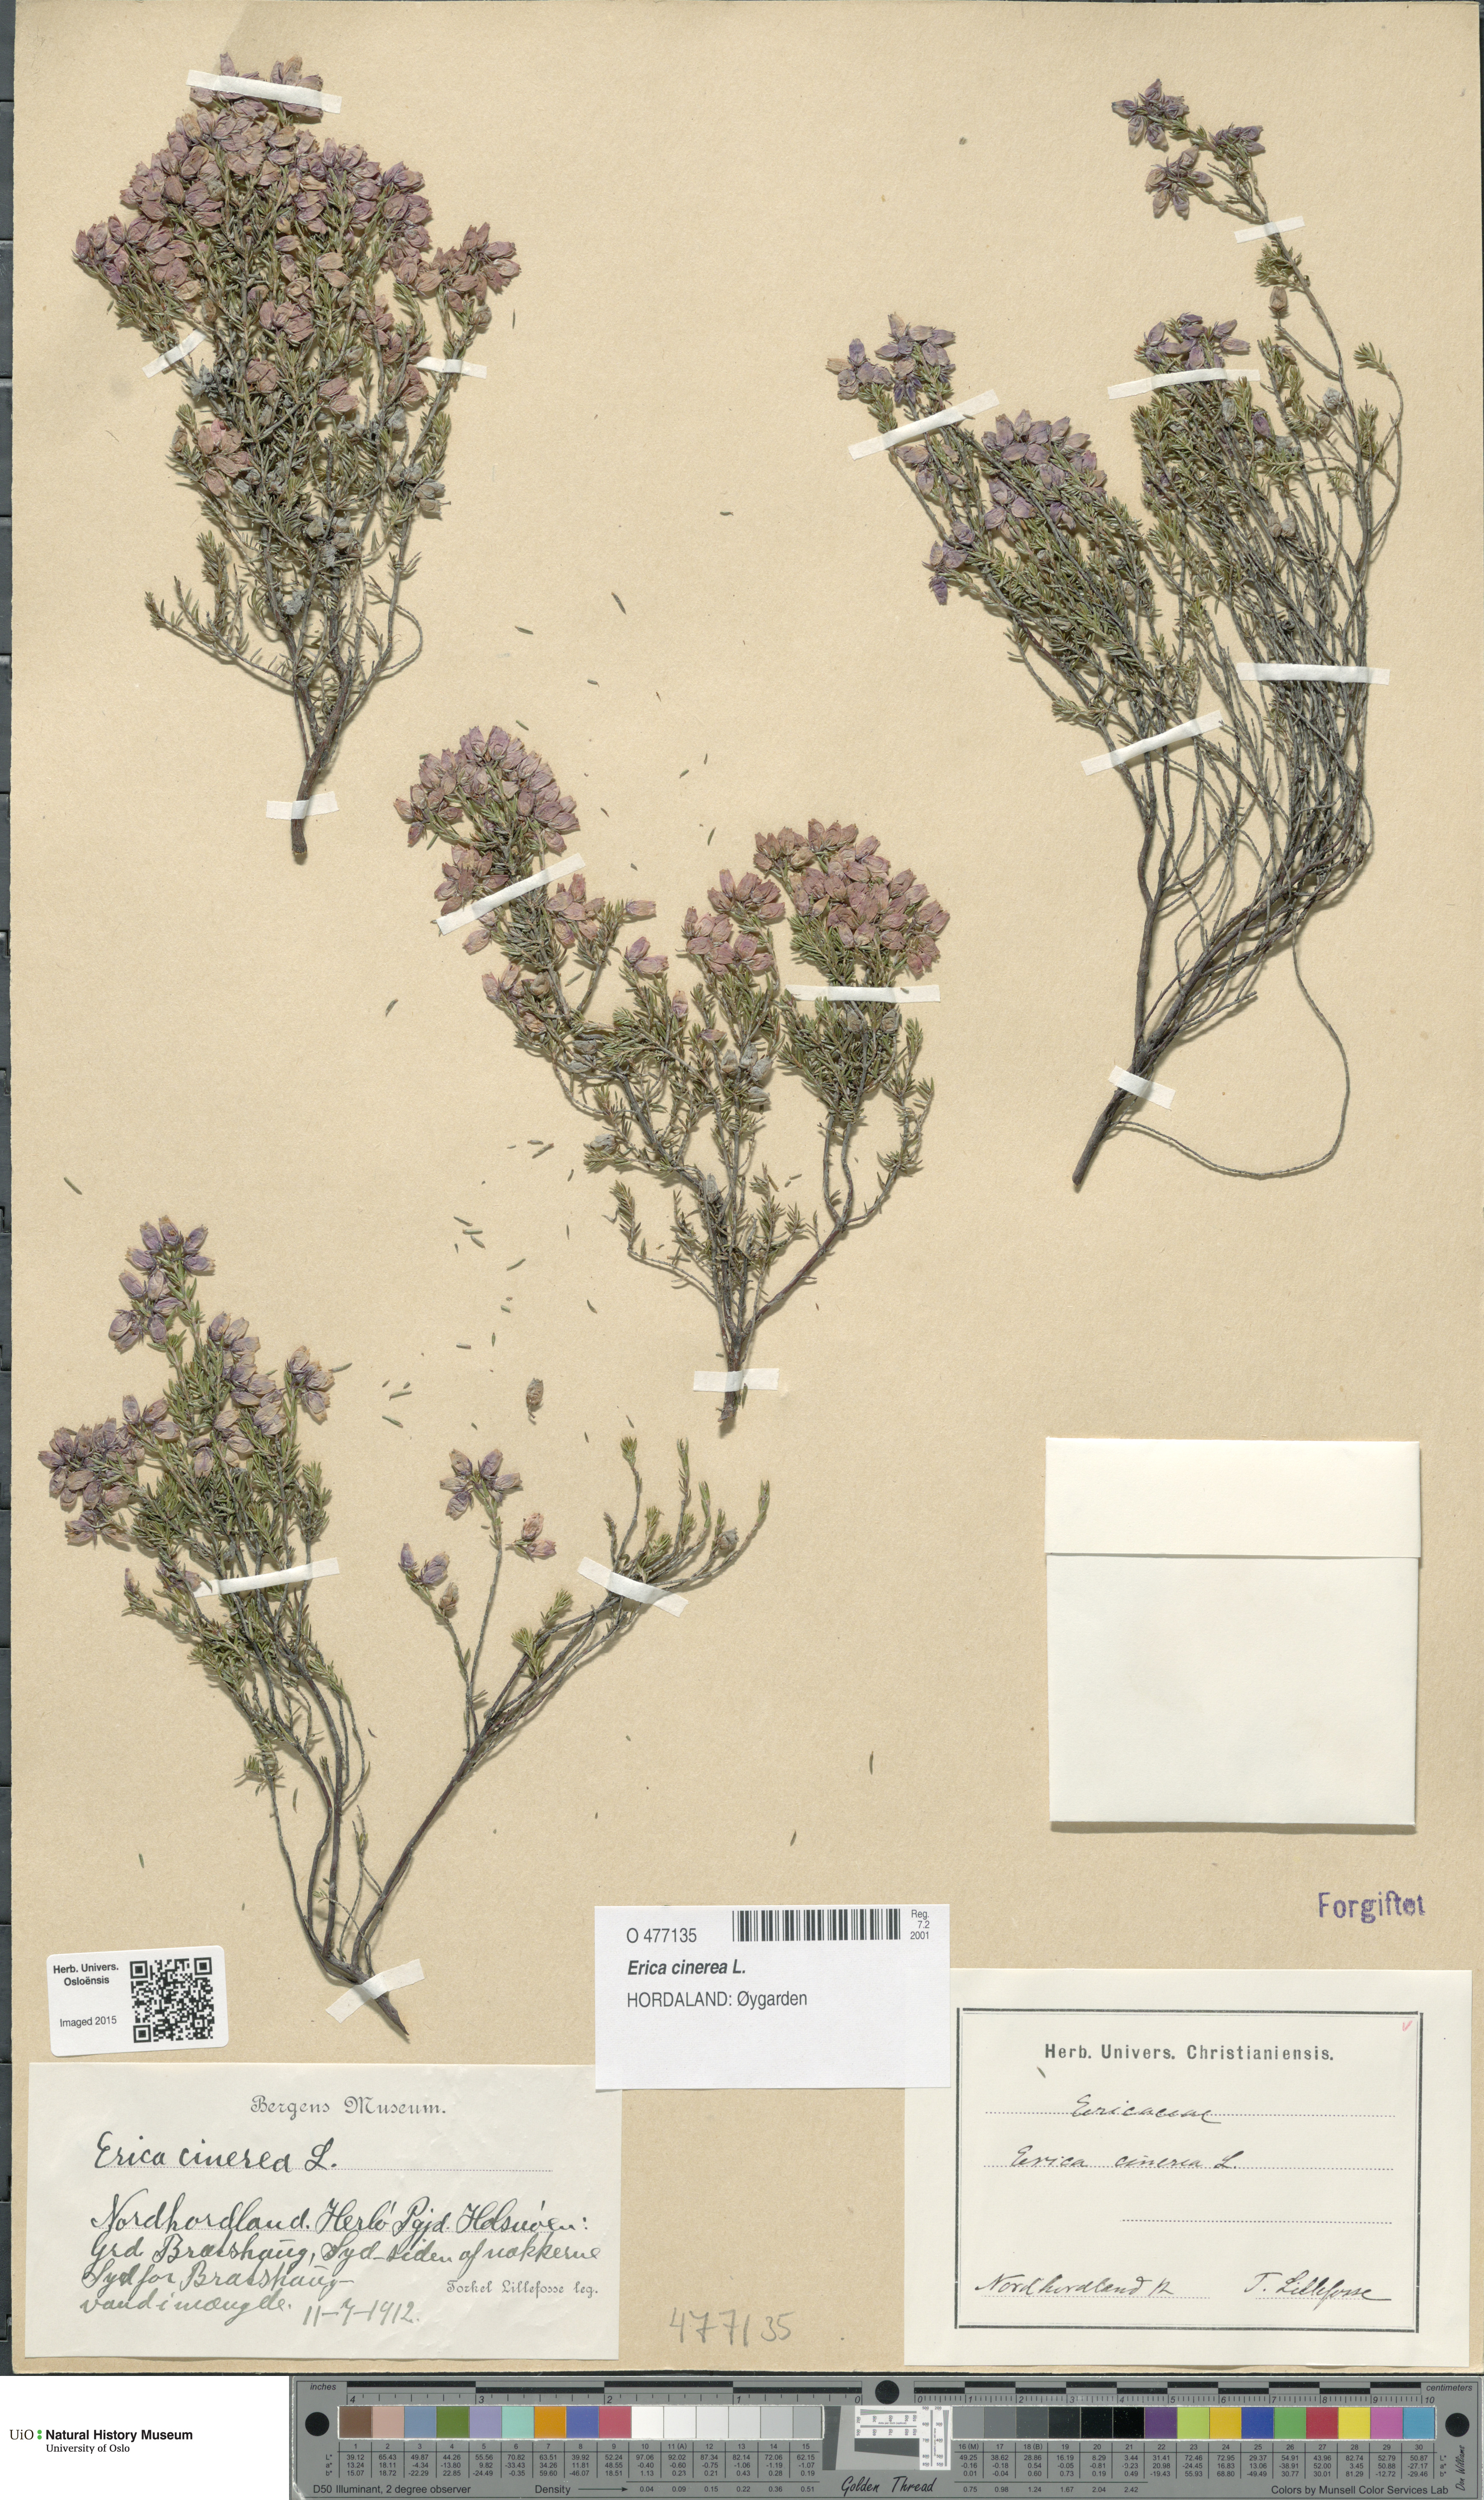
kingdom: Plantae
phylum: Tracheophyta
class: Magnoliopsida
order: Ericales
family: Ericaceae
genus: Erica
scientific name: Erica cinerea
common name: Bell heather
